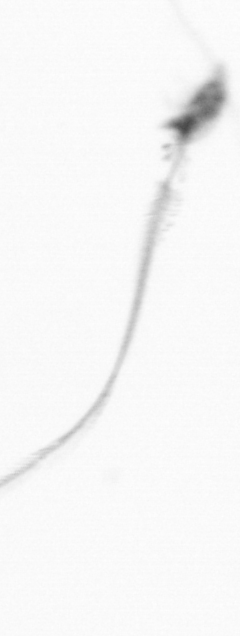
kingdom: Animalia
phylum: Arthropoda
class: Copepoda
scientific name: Copepoda
